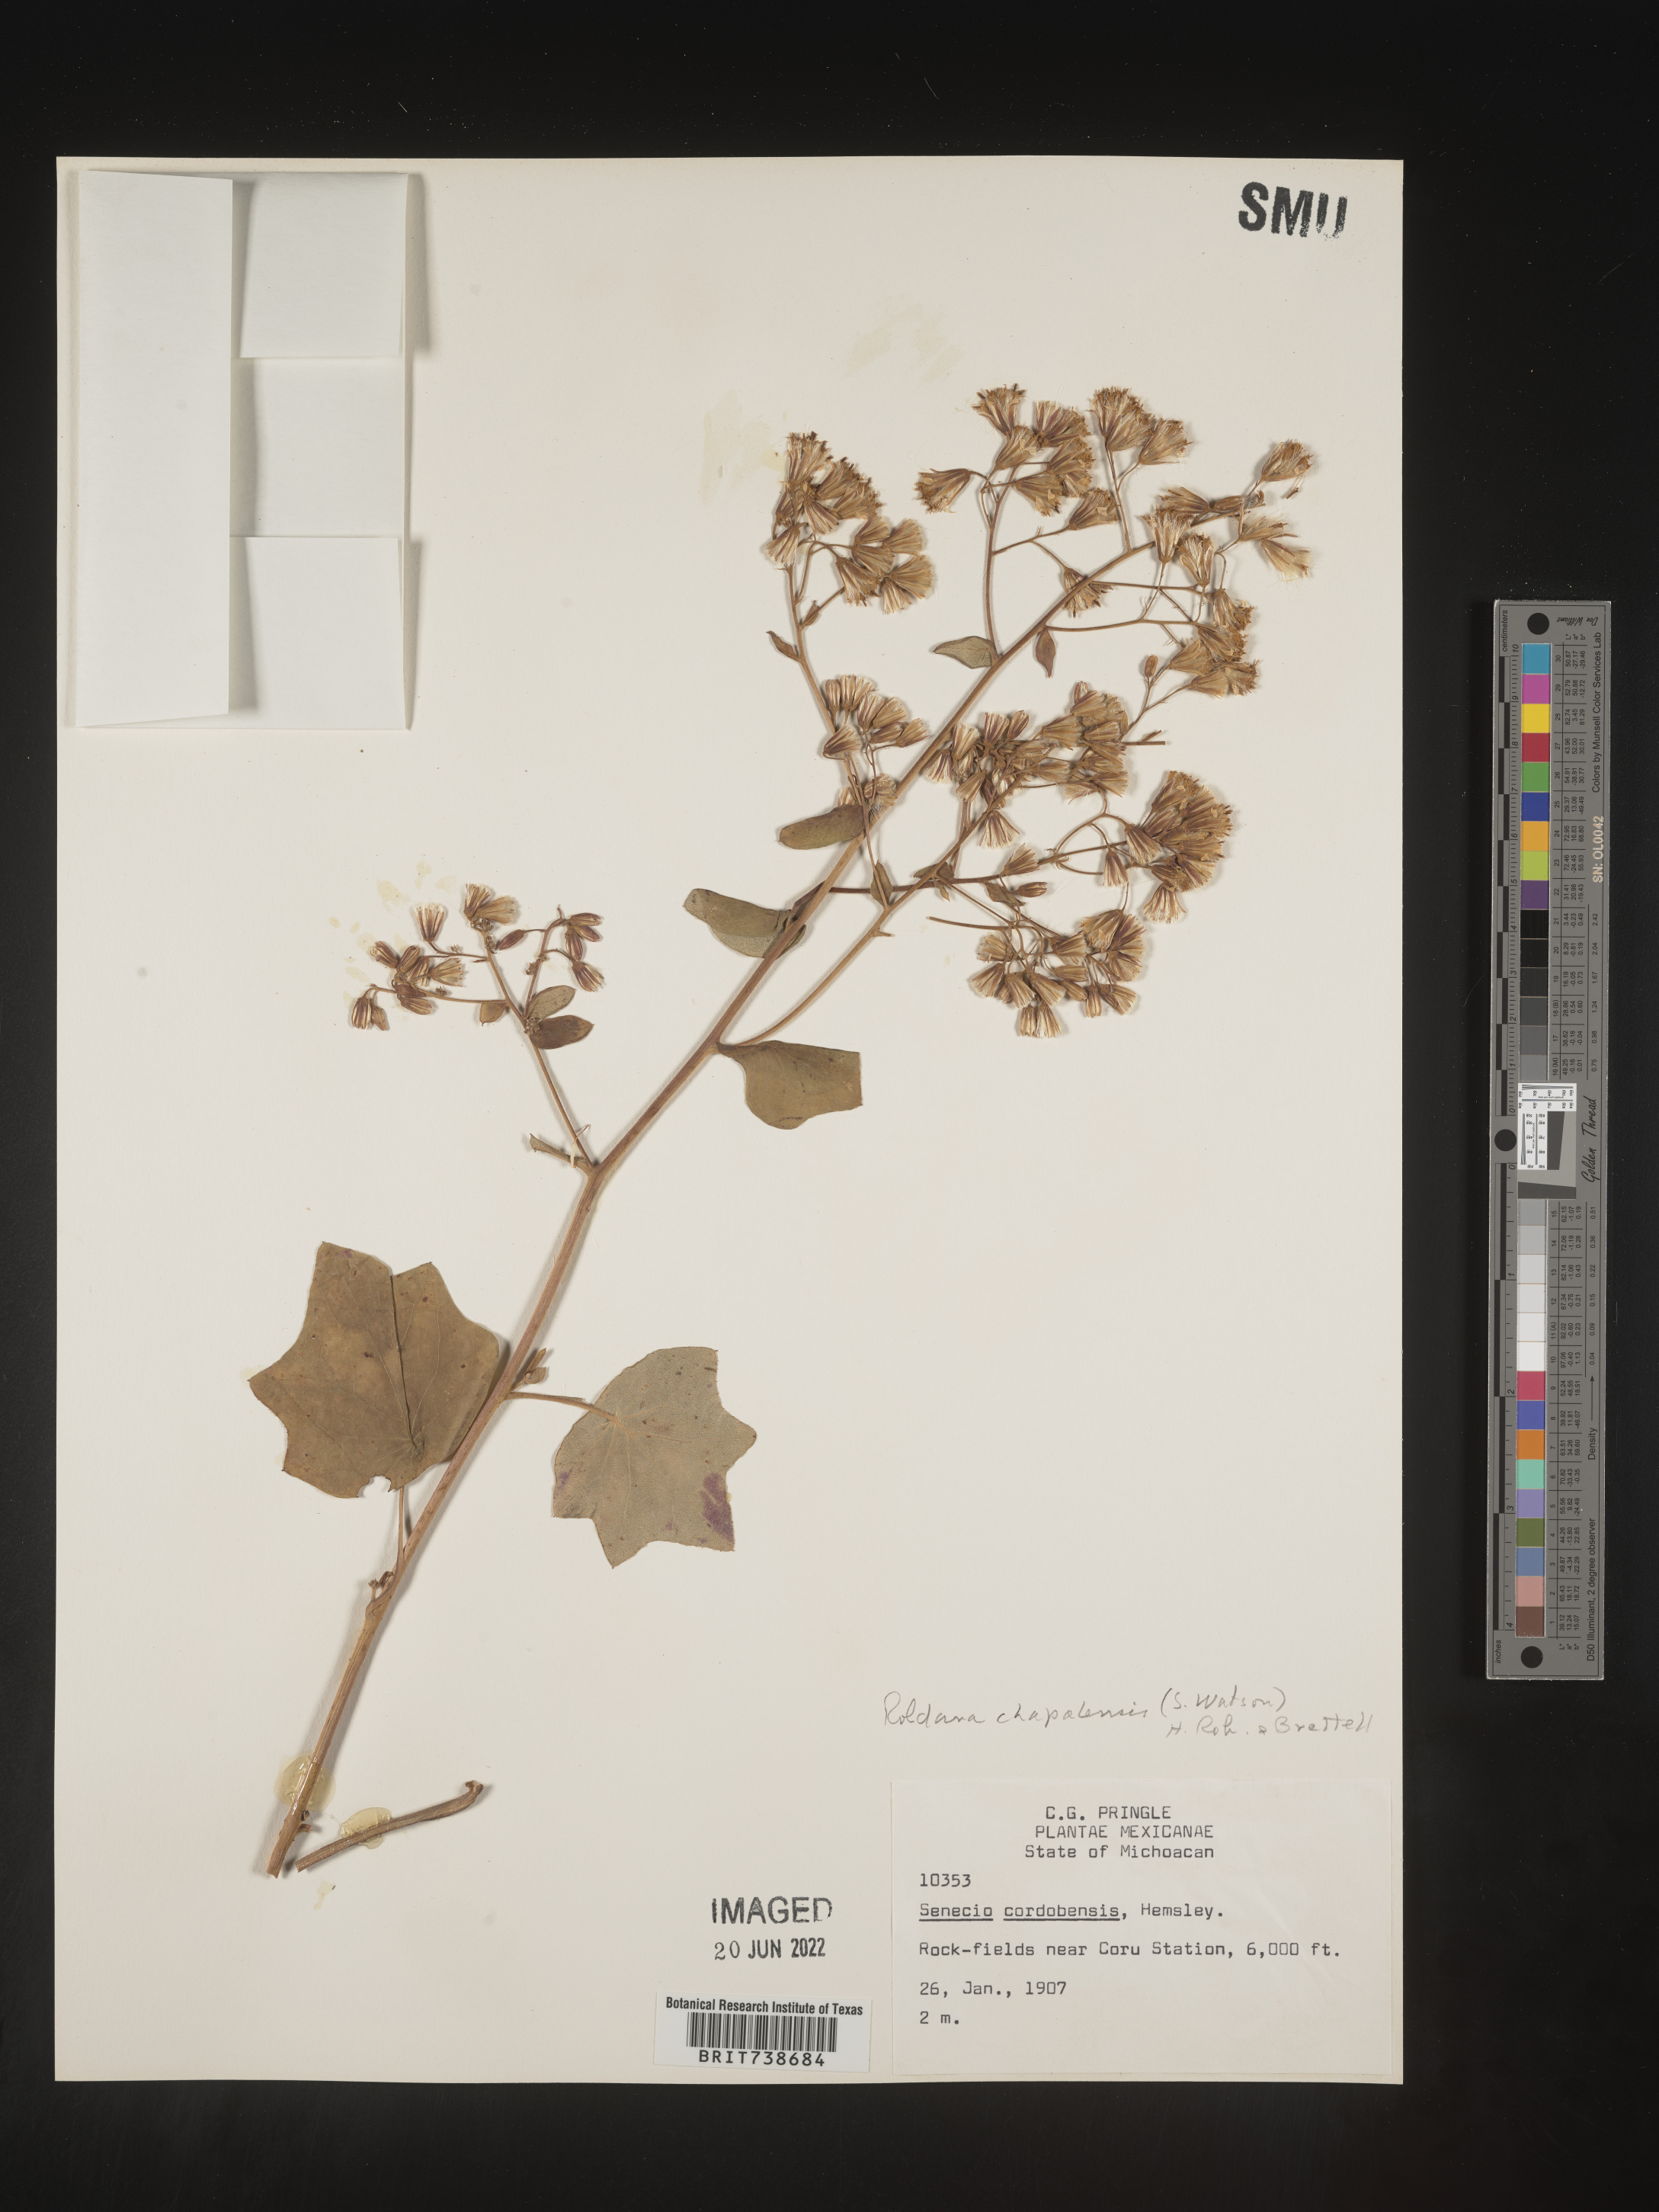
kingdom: Plantae
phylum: Tracheophyta
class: Magnoliopsida
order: Asterales
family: Asteraceae
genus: Roldana
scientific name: Roldana
